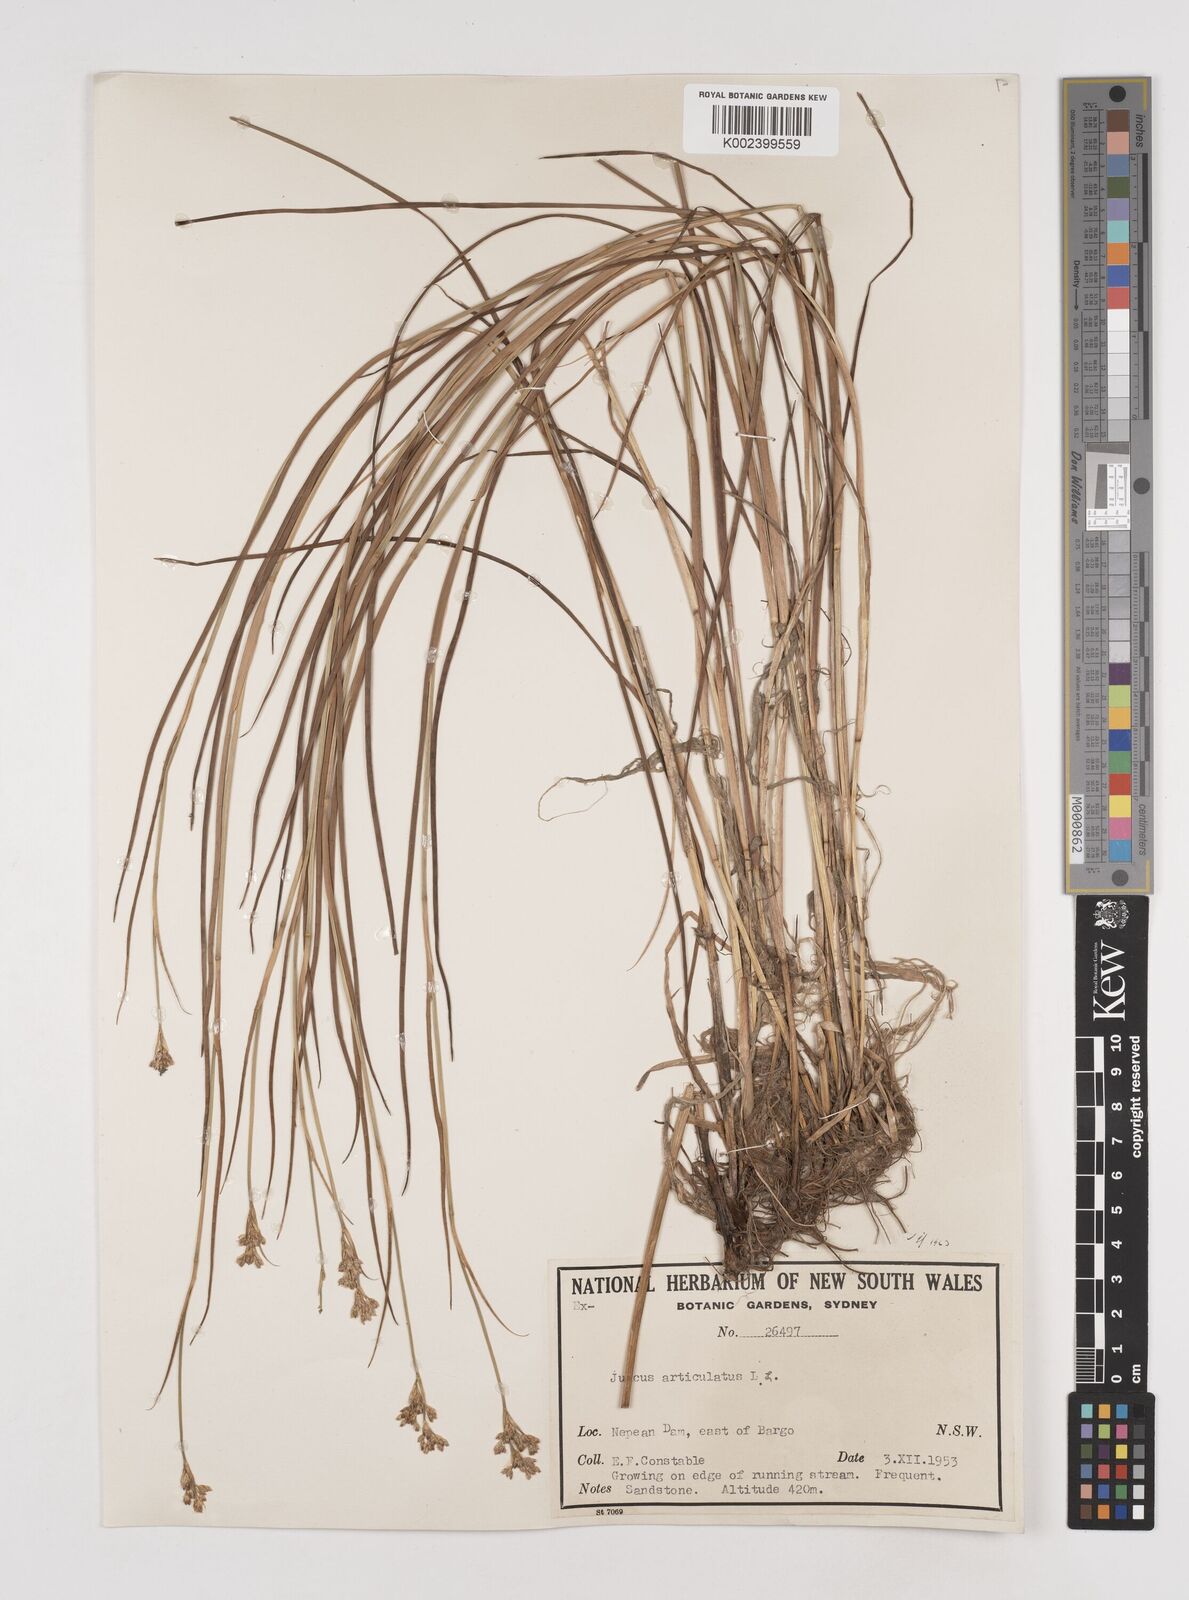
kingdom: Plantae
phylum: Tracheophyta
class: Liliopsida
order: Poales
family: Juncaceae
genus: Juncus
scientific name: Juncus articulatus
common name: Jointed rush
